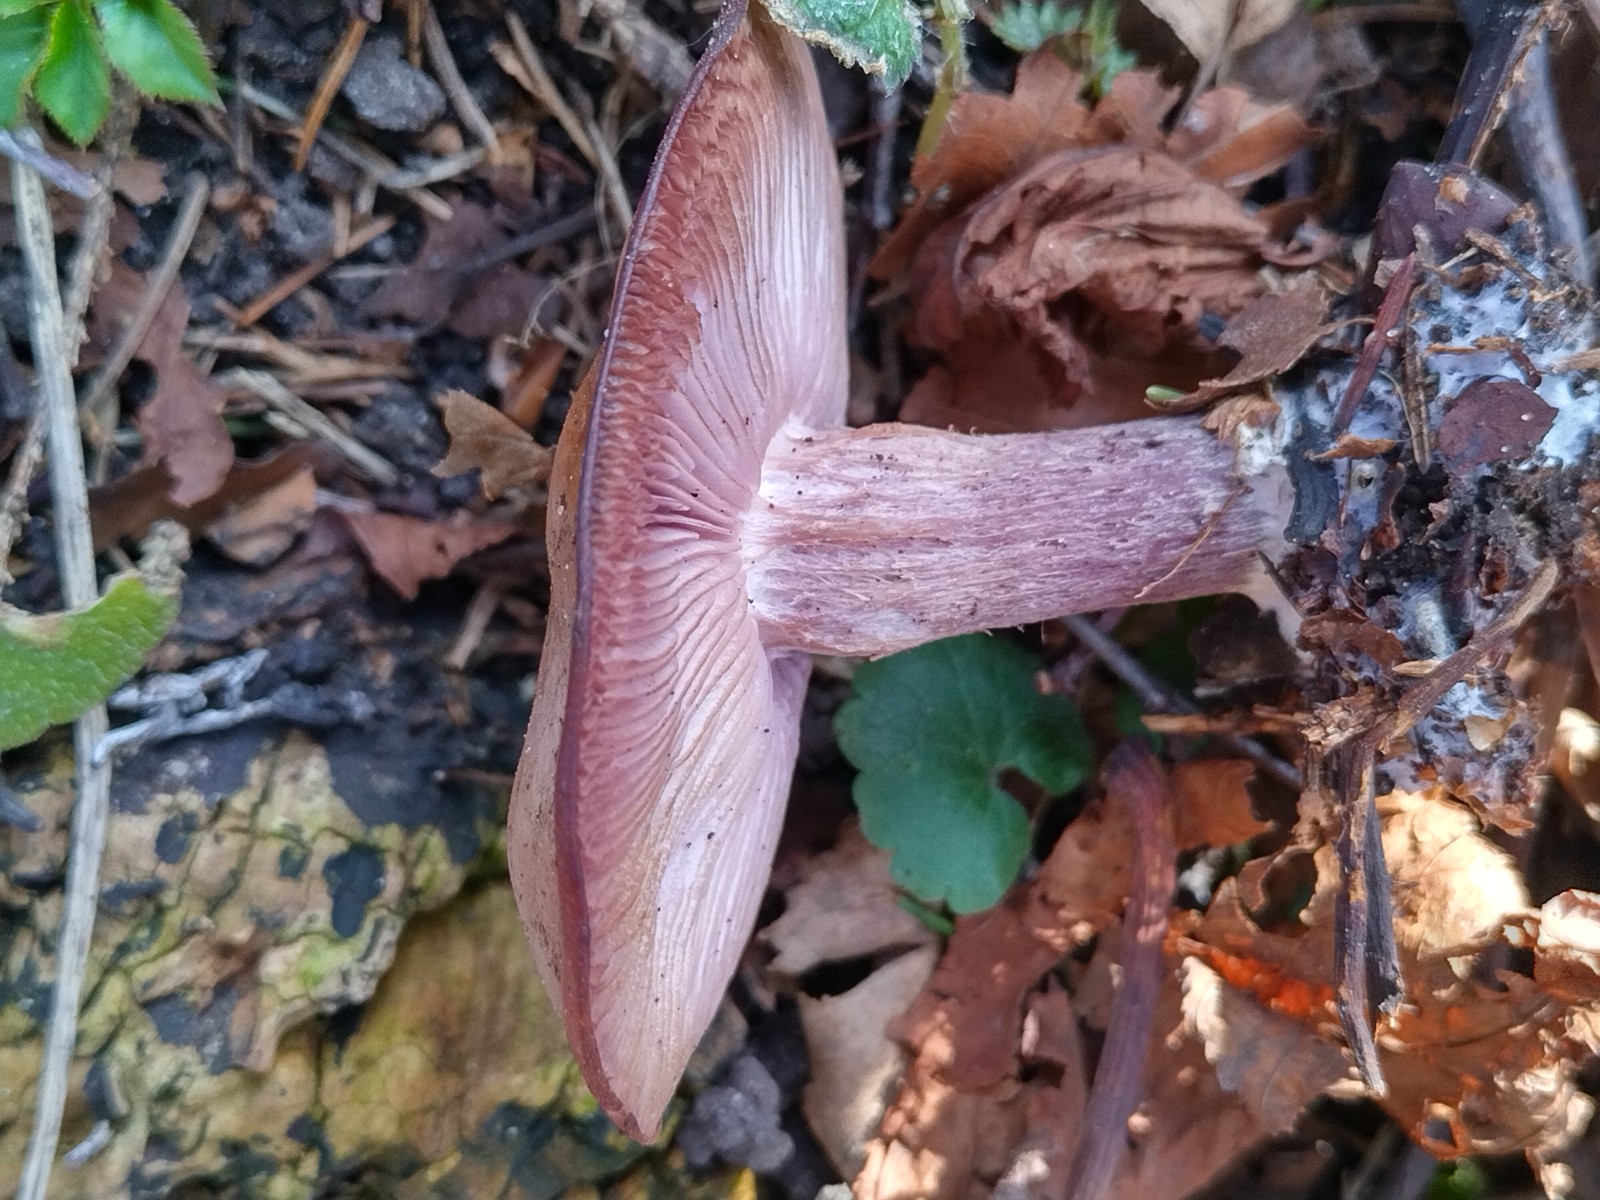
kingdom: Fungi
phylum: Basidiomycota
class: Agaricomycetes
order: Agaricales
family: Tricholomataceae
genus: Lepista
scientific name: Lepista personata
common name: bleg hekseringshat
